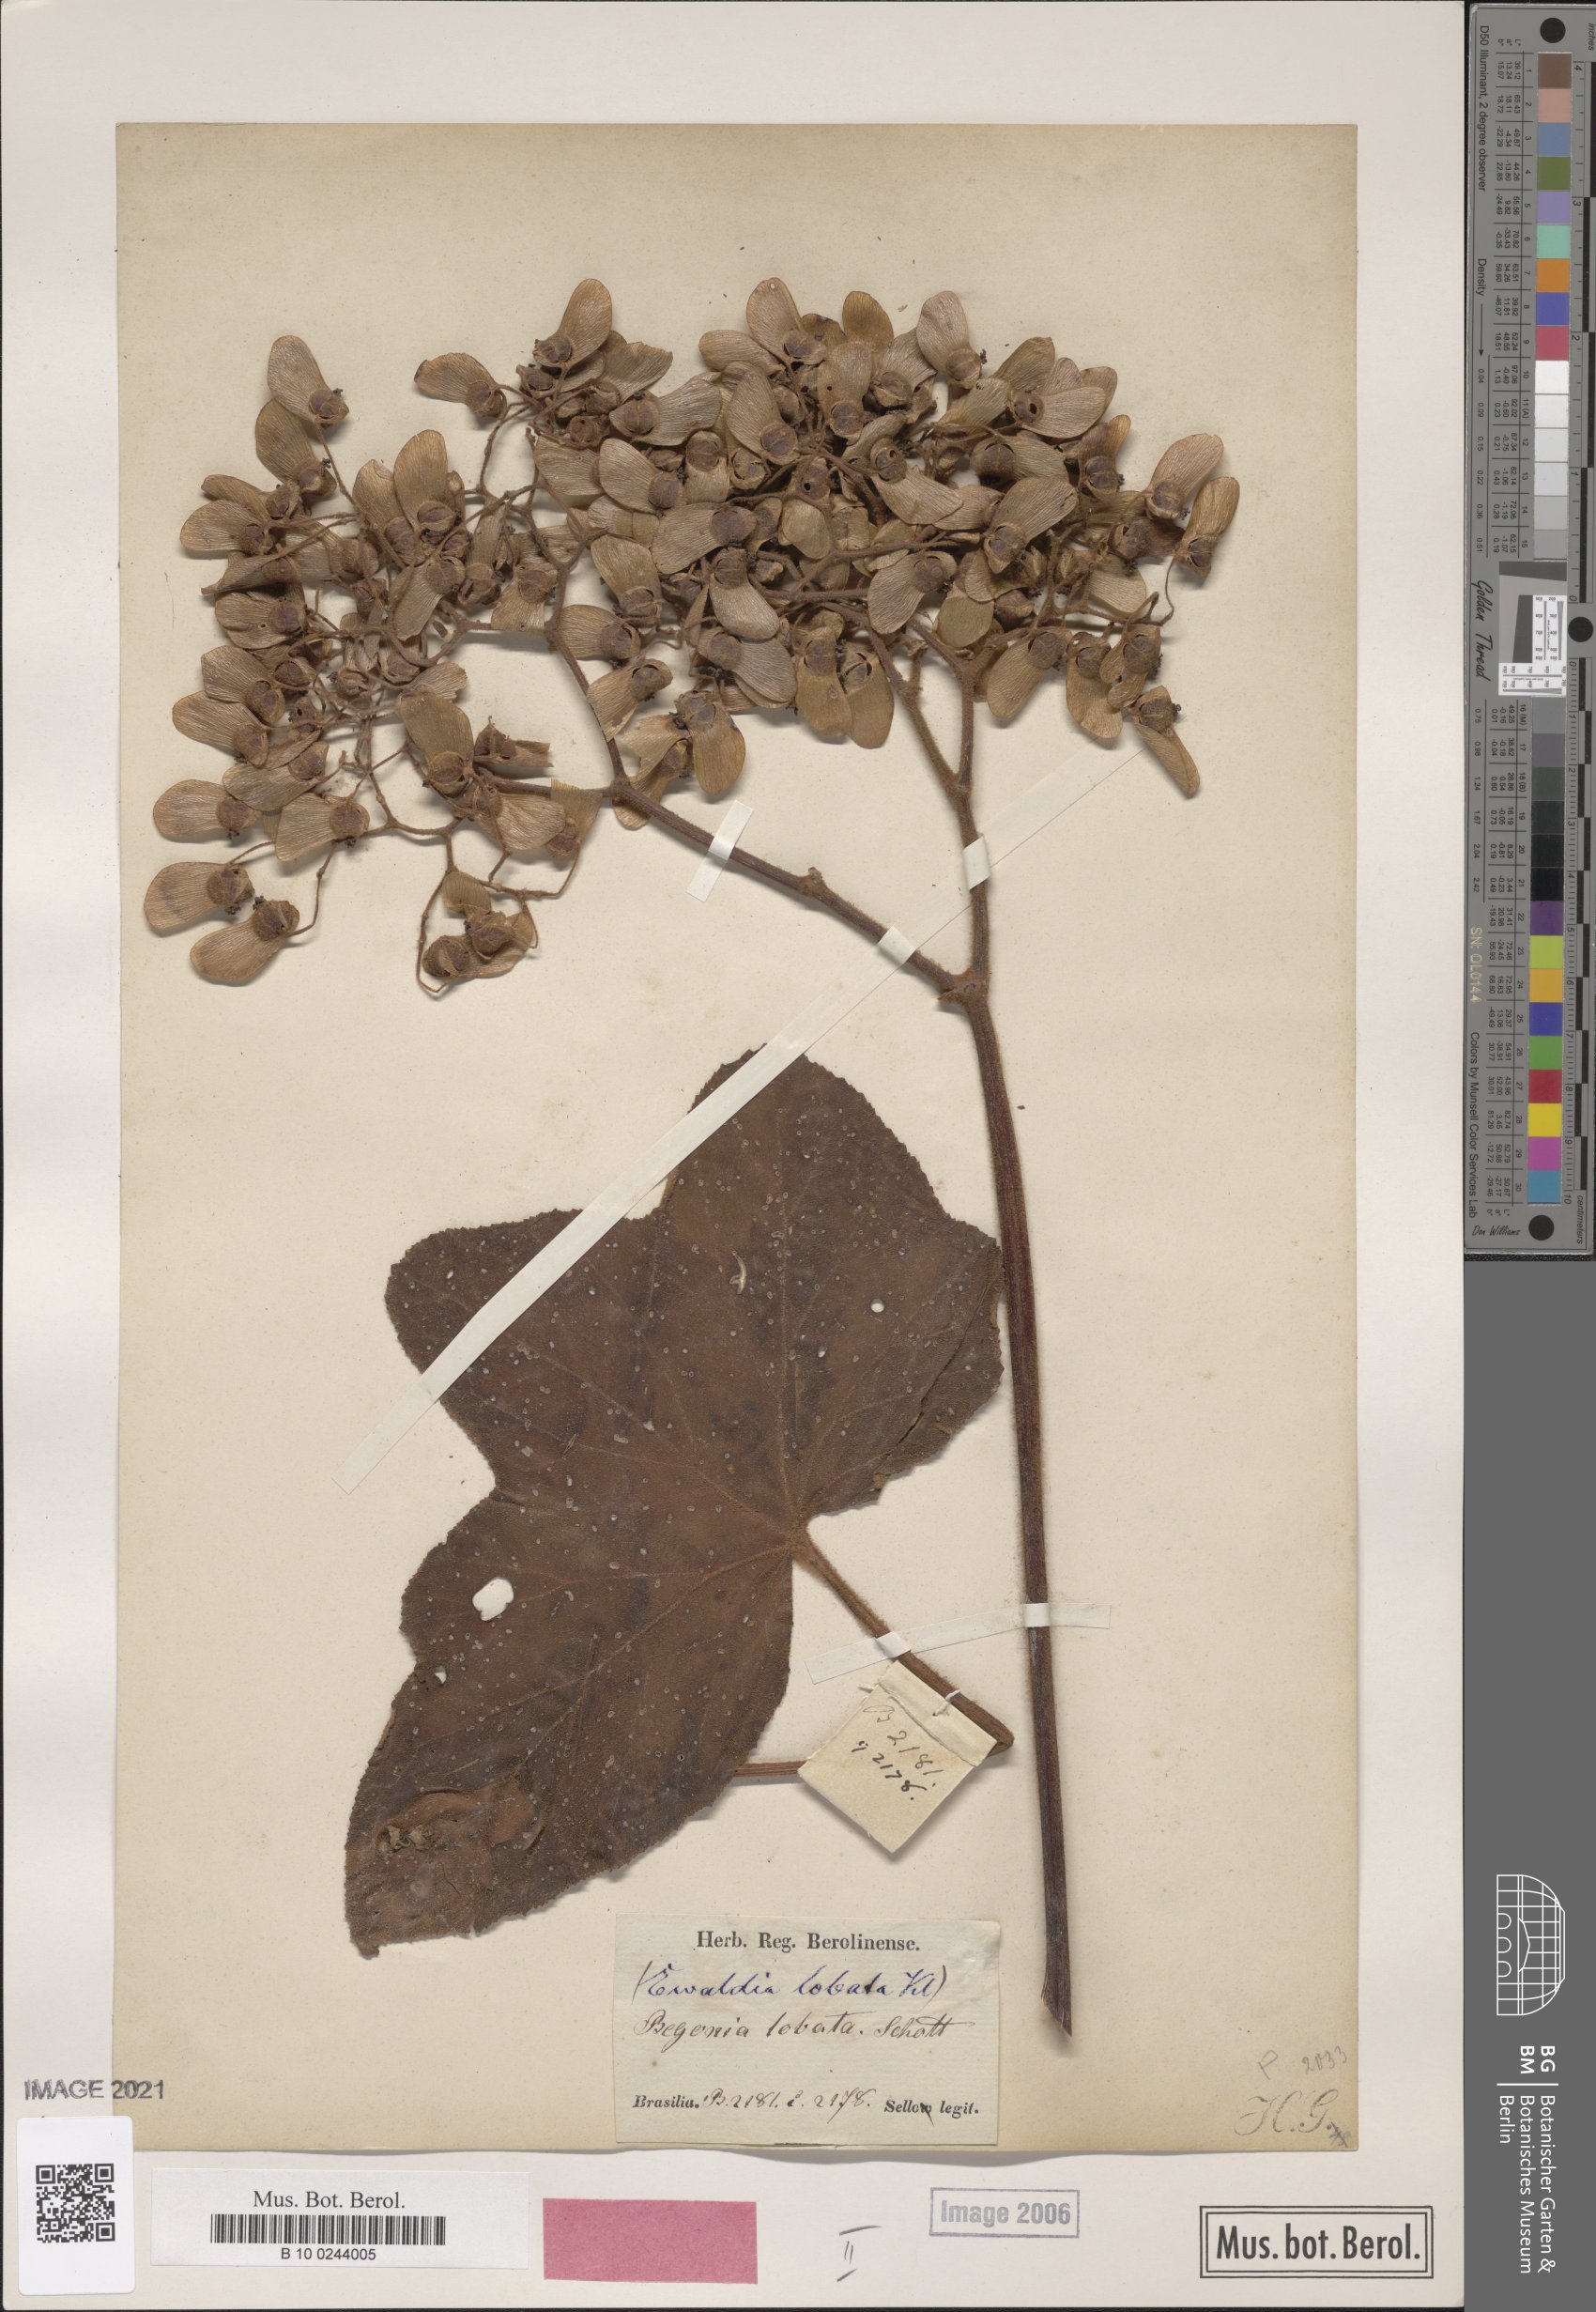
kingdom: Plantae
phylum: Tracheophyta
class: Magnoliopsida
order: Cucurbitales
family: Begoniaceae
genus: Begonia
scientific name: Begonia rufa
